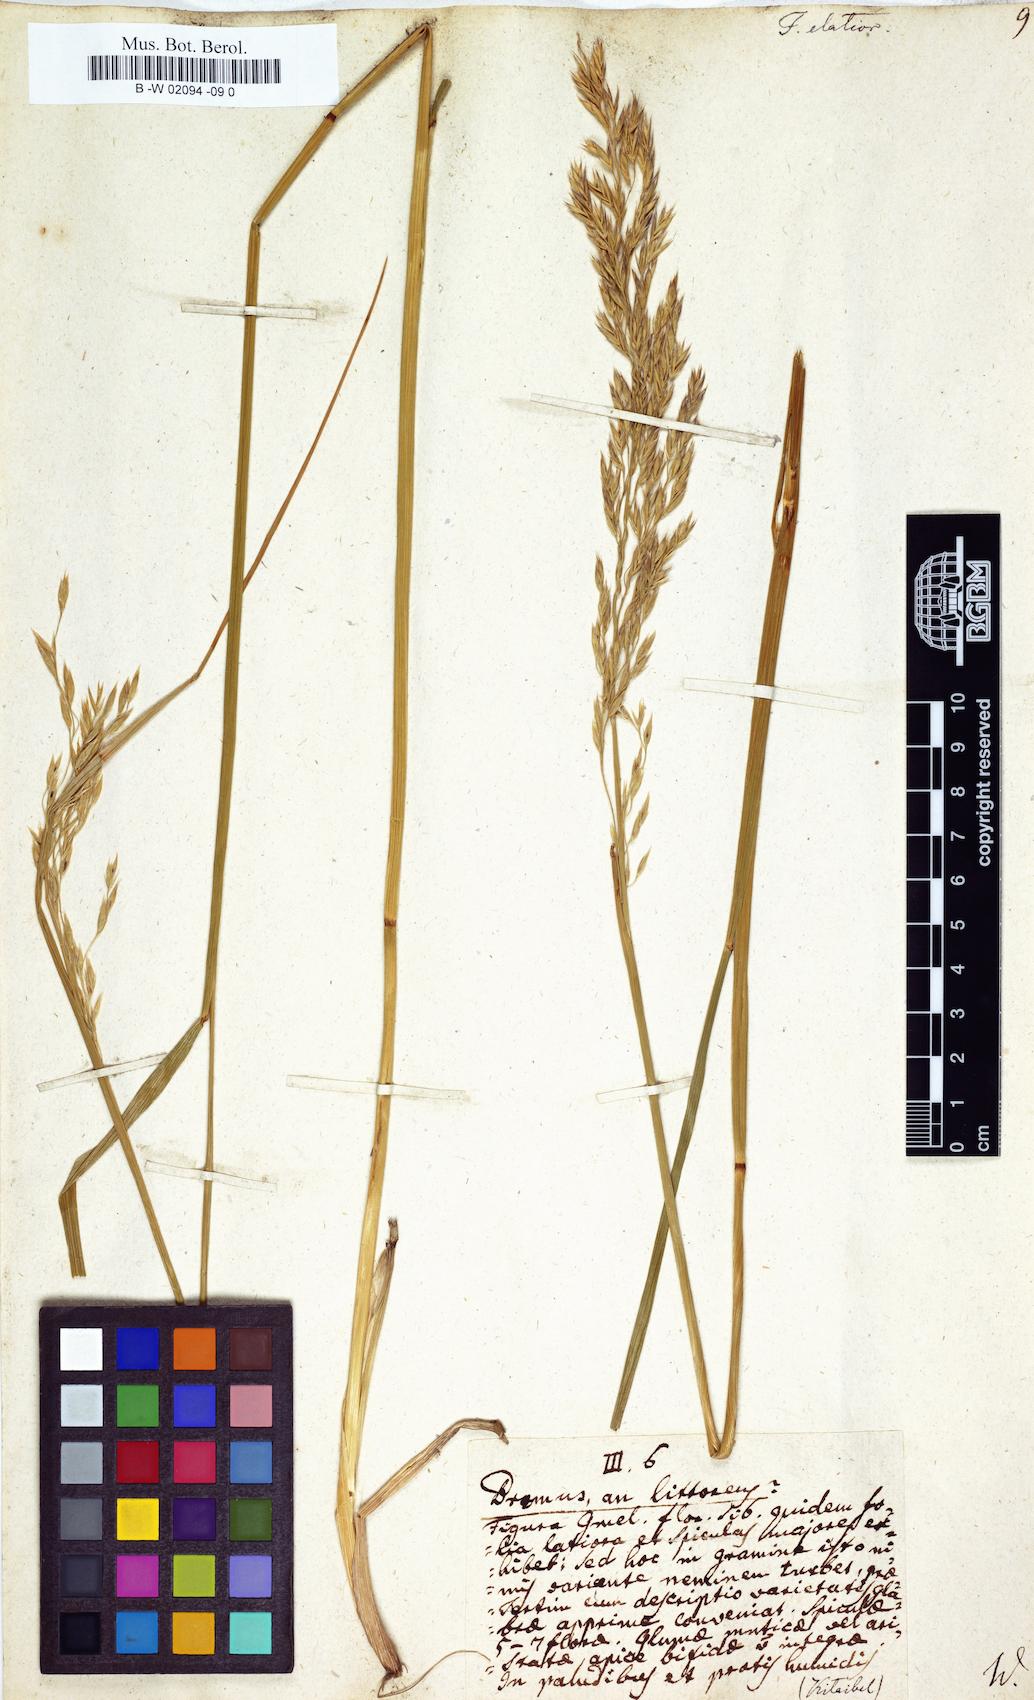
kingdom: Plantae
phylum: Tracheophyta
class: Liliopsida
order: Poales
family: Poaceae
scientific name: Poaceae
